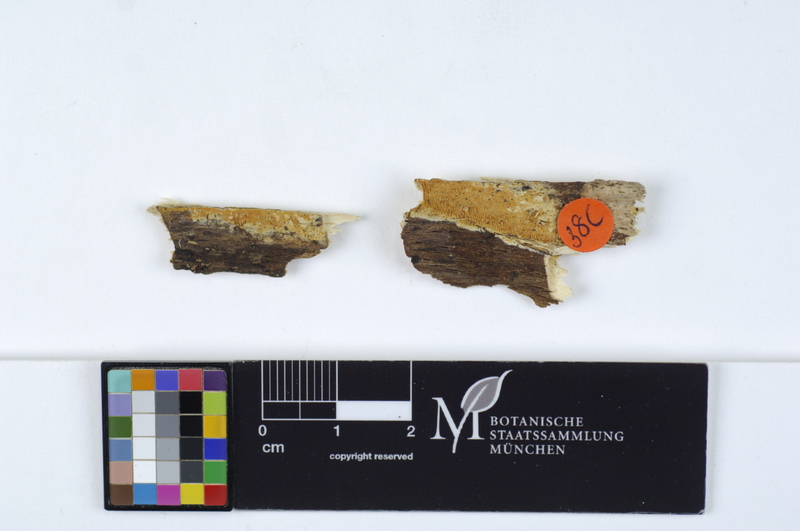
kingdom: Fungi
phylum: Basidiomycota
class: Agaricomycetes
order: Polyporales
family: Meruliaceae
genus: Mycoacia
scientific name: Mycoacia aurea
